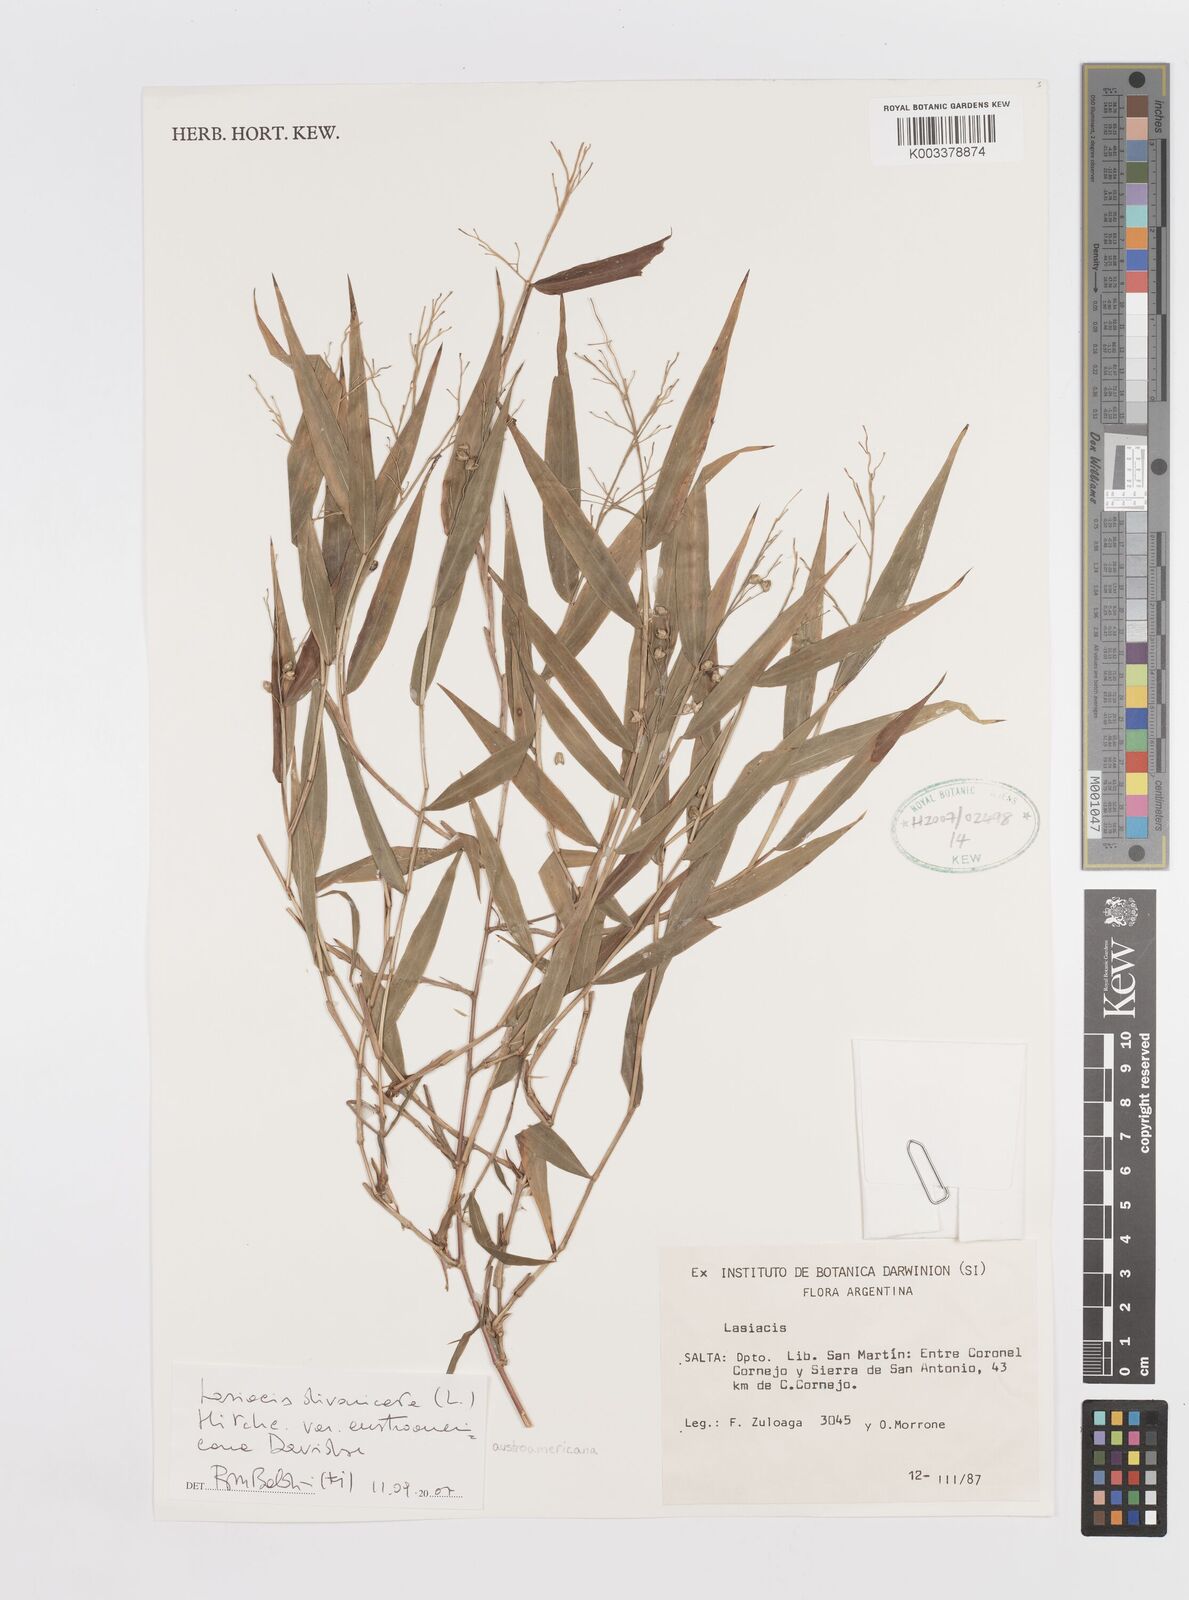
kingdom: Plantae
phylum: Tracheophyta
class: Liliopsida
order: Poales
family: Poaceae
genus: Lasiacis
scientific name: Lasiacis divaricata
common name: Smallcane
